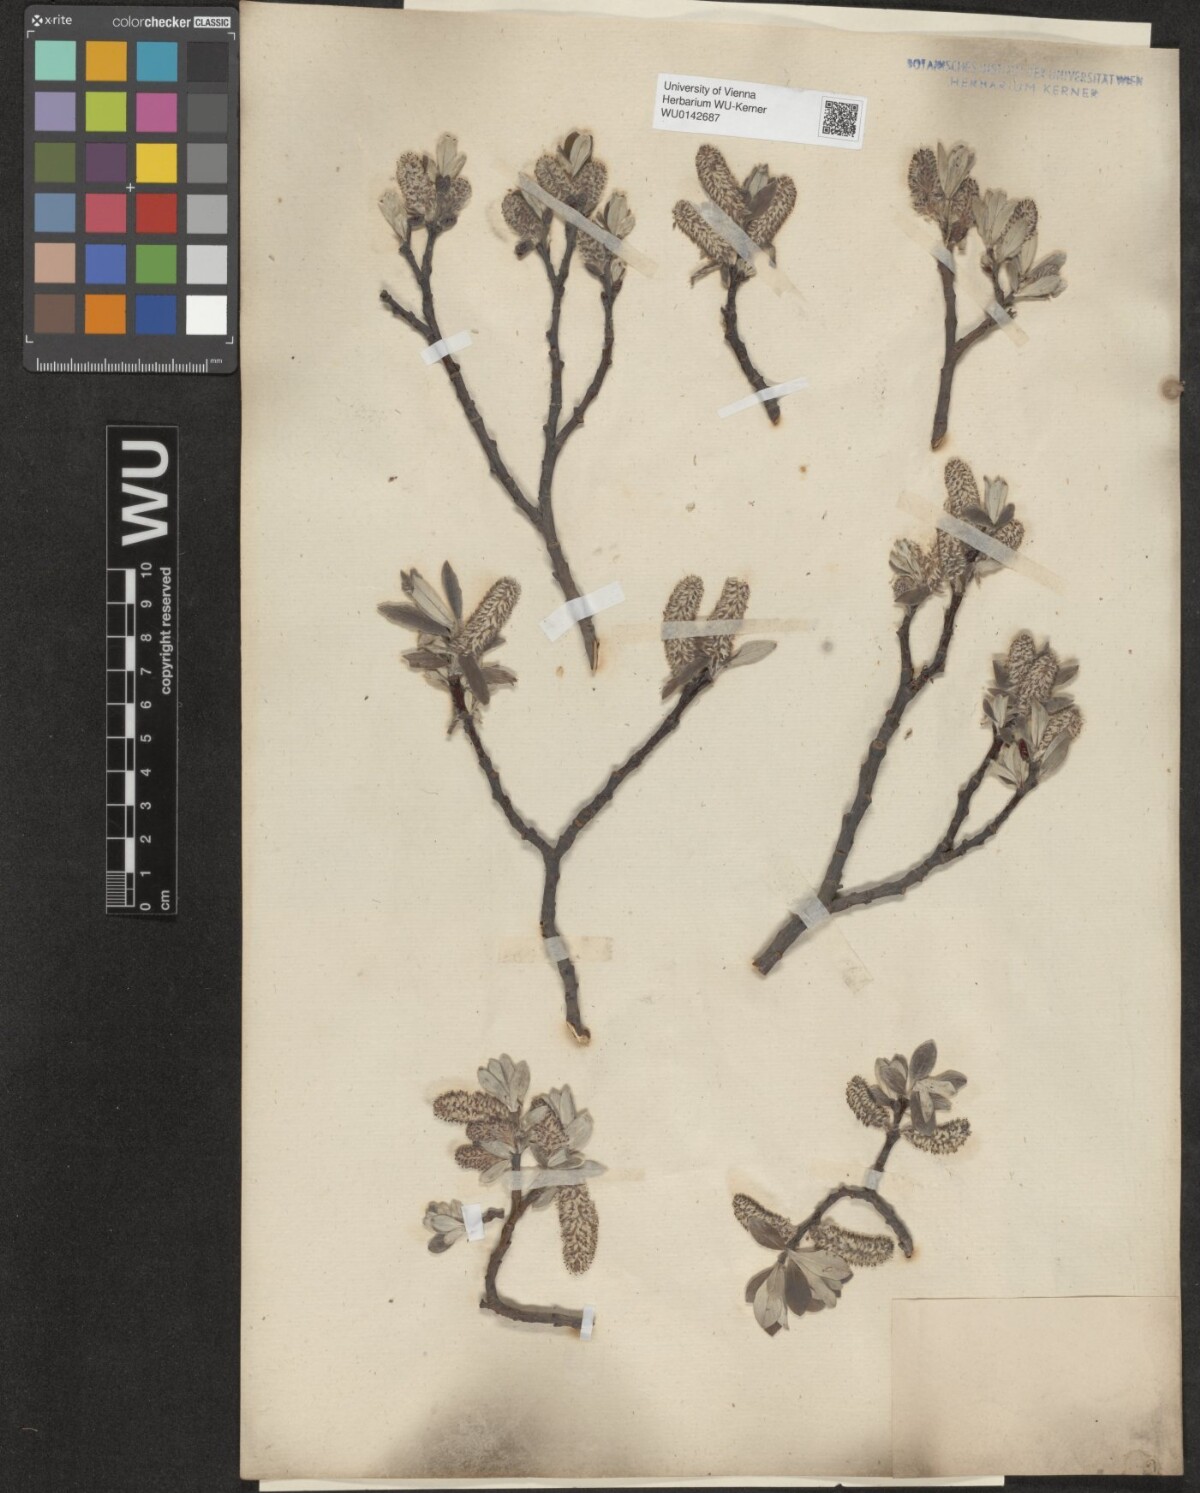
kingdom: Plantae
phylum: Tracheophyta
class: Magnoliopsida
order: Malpighiales
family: Salicaceae
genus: Salix
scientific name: Salix helvetica
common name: Swiss willow
